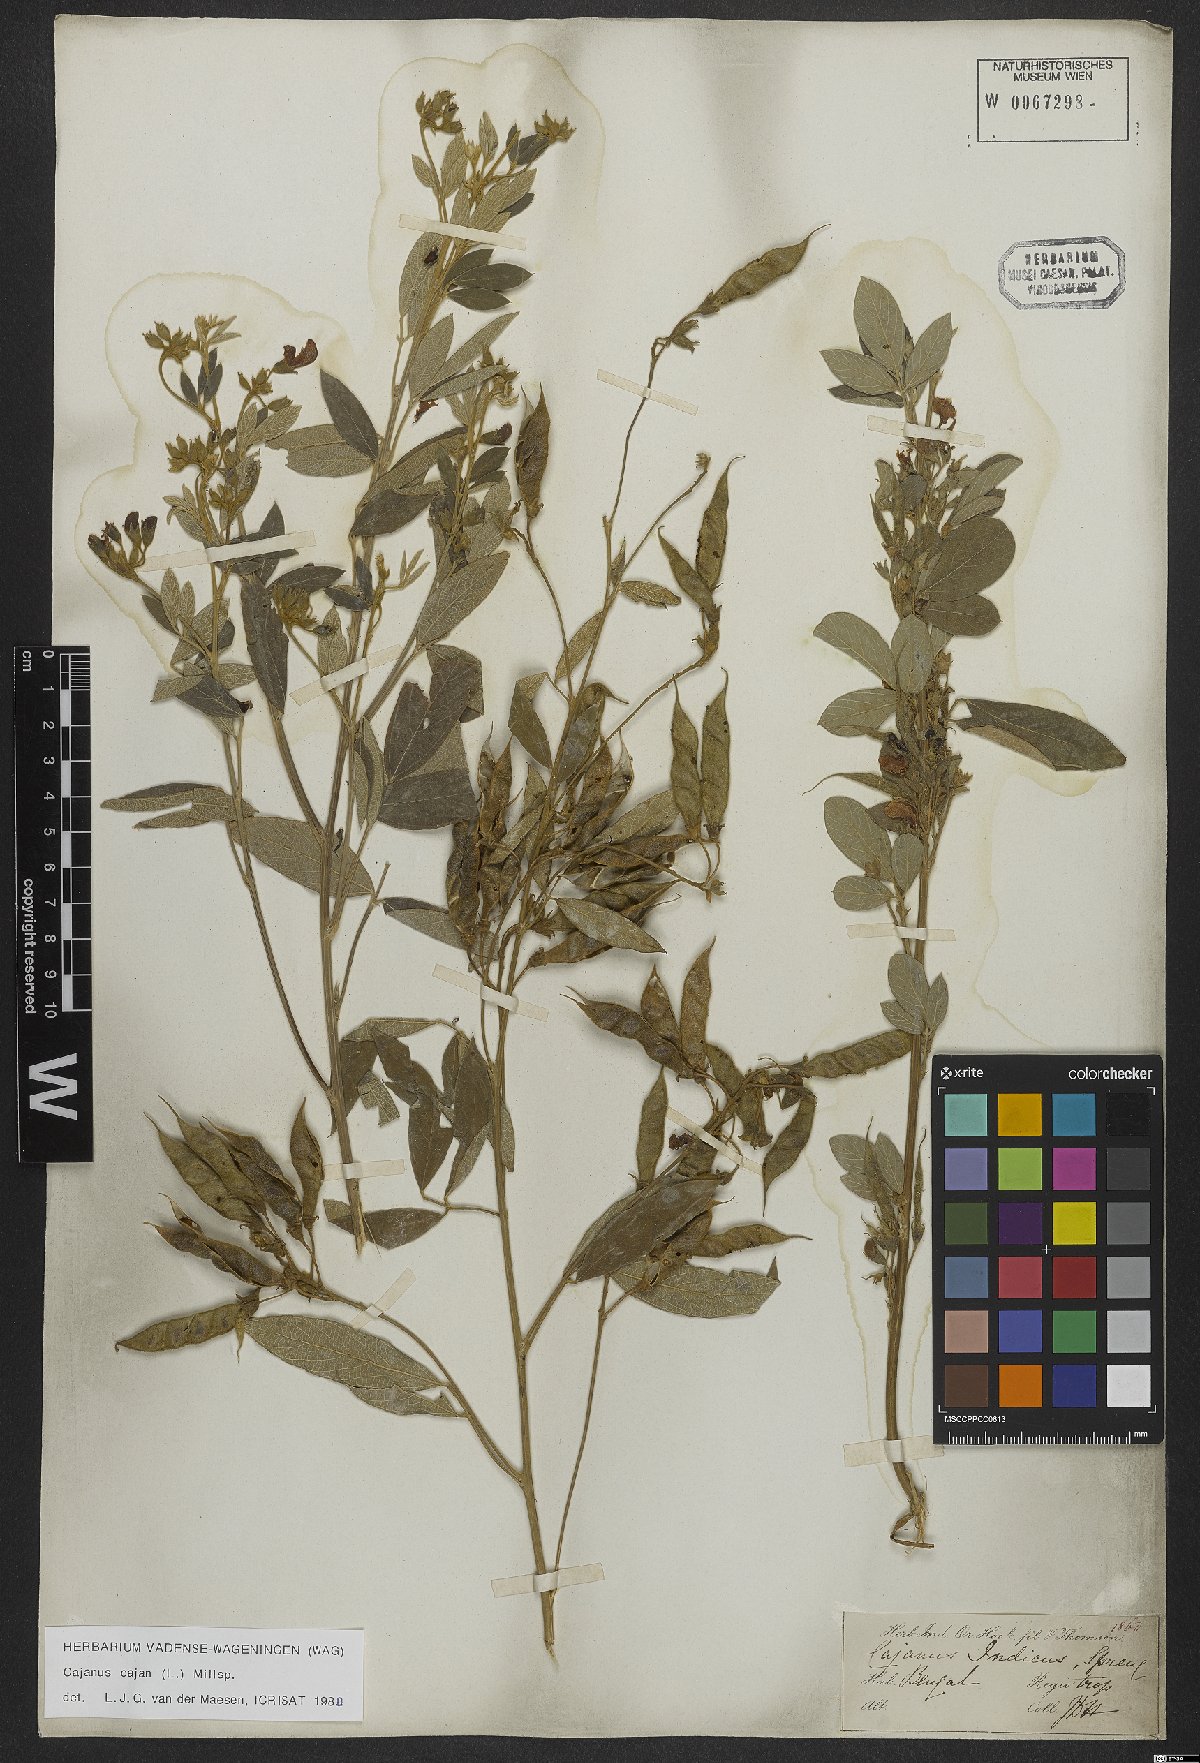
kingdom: Plantae
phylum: Tracheophyta
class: Magnoliopsida
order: Fabales
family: Fabaceae
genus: Cajanus
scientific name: Cajanus cajan
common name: Pigeonpea
